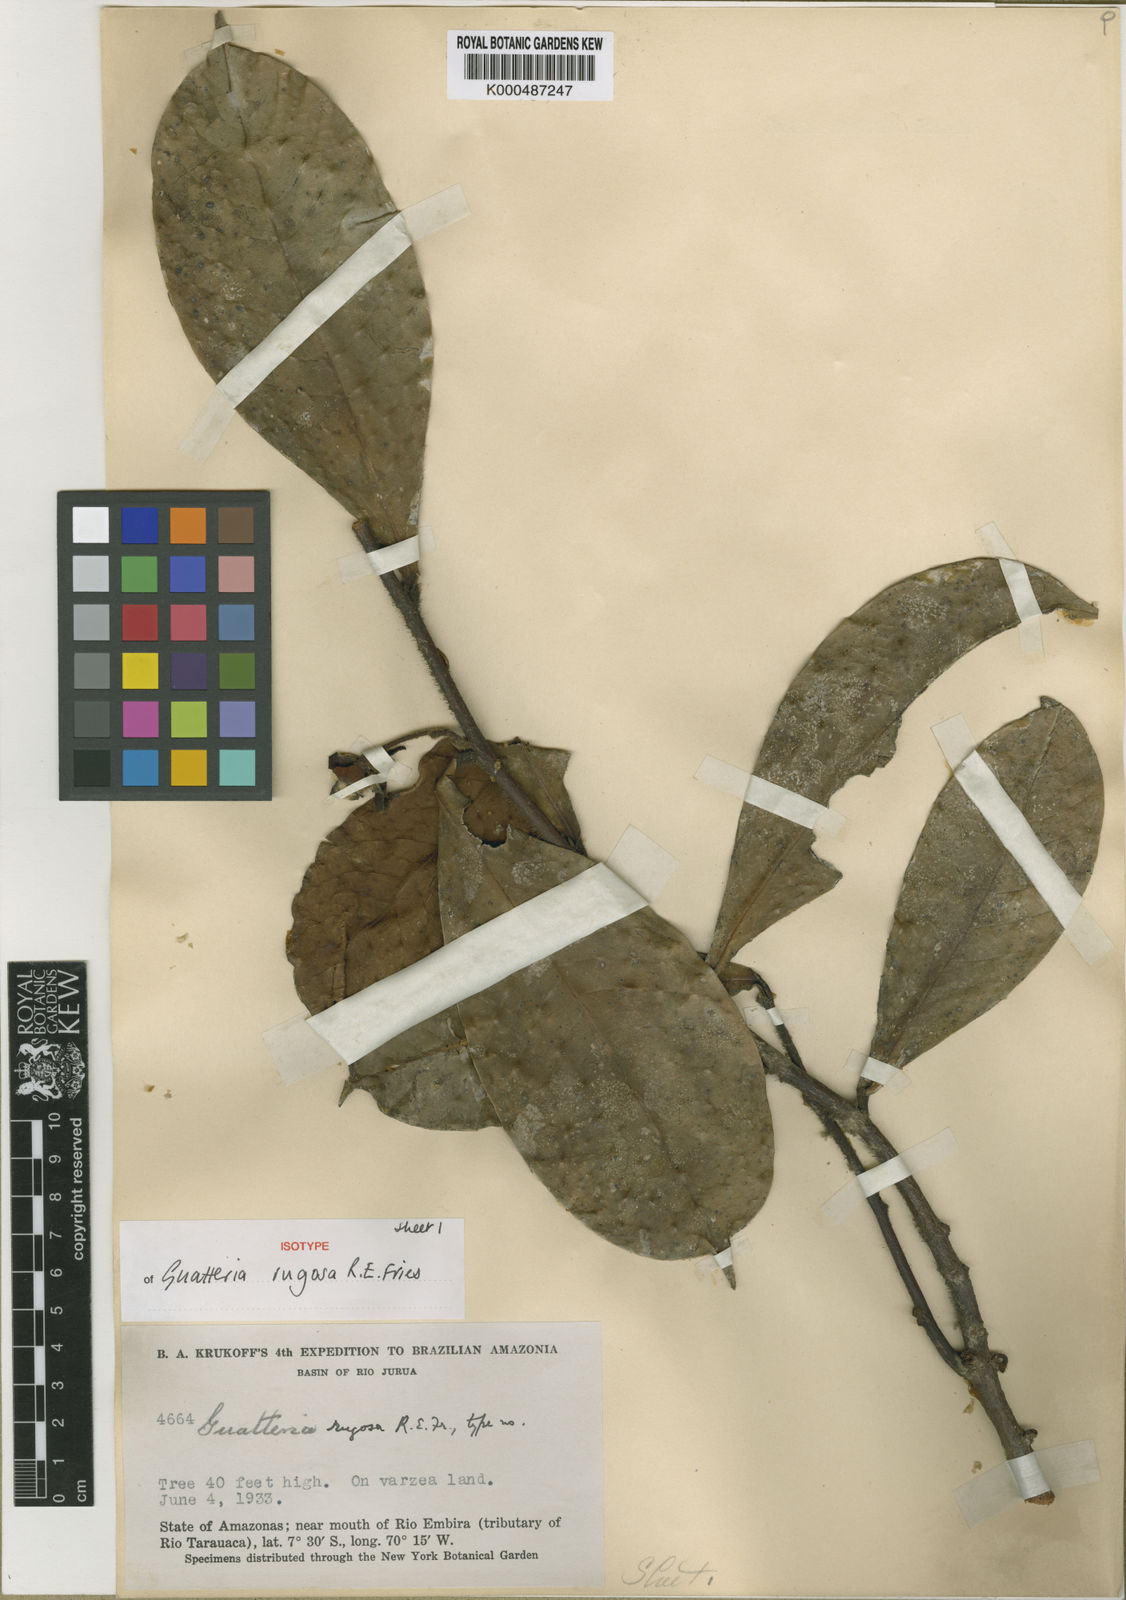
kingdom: Plantae
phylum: Tracheophyta
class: Magnoliopsida
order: Magnoliales
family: Annonaceae
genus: Guatteria
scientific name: Guatteria decurrens
